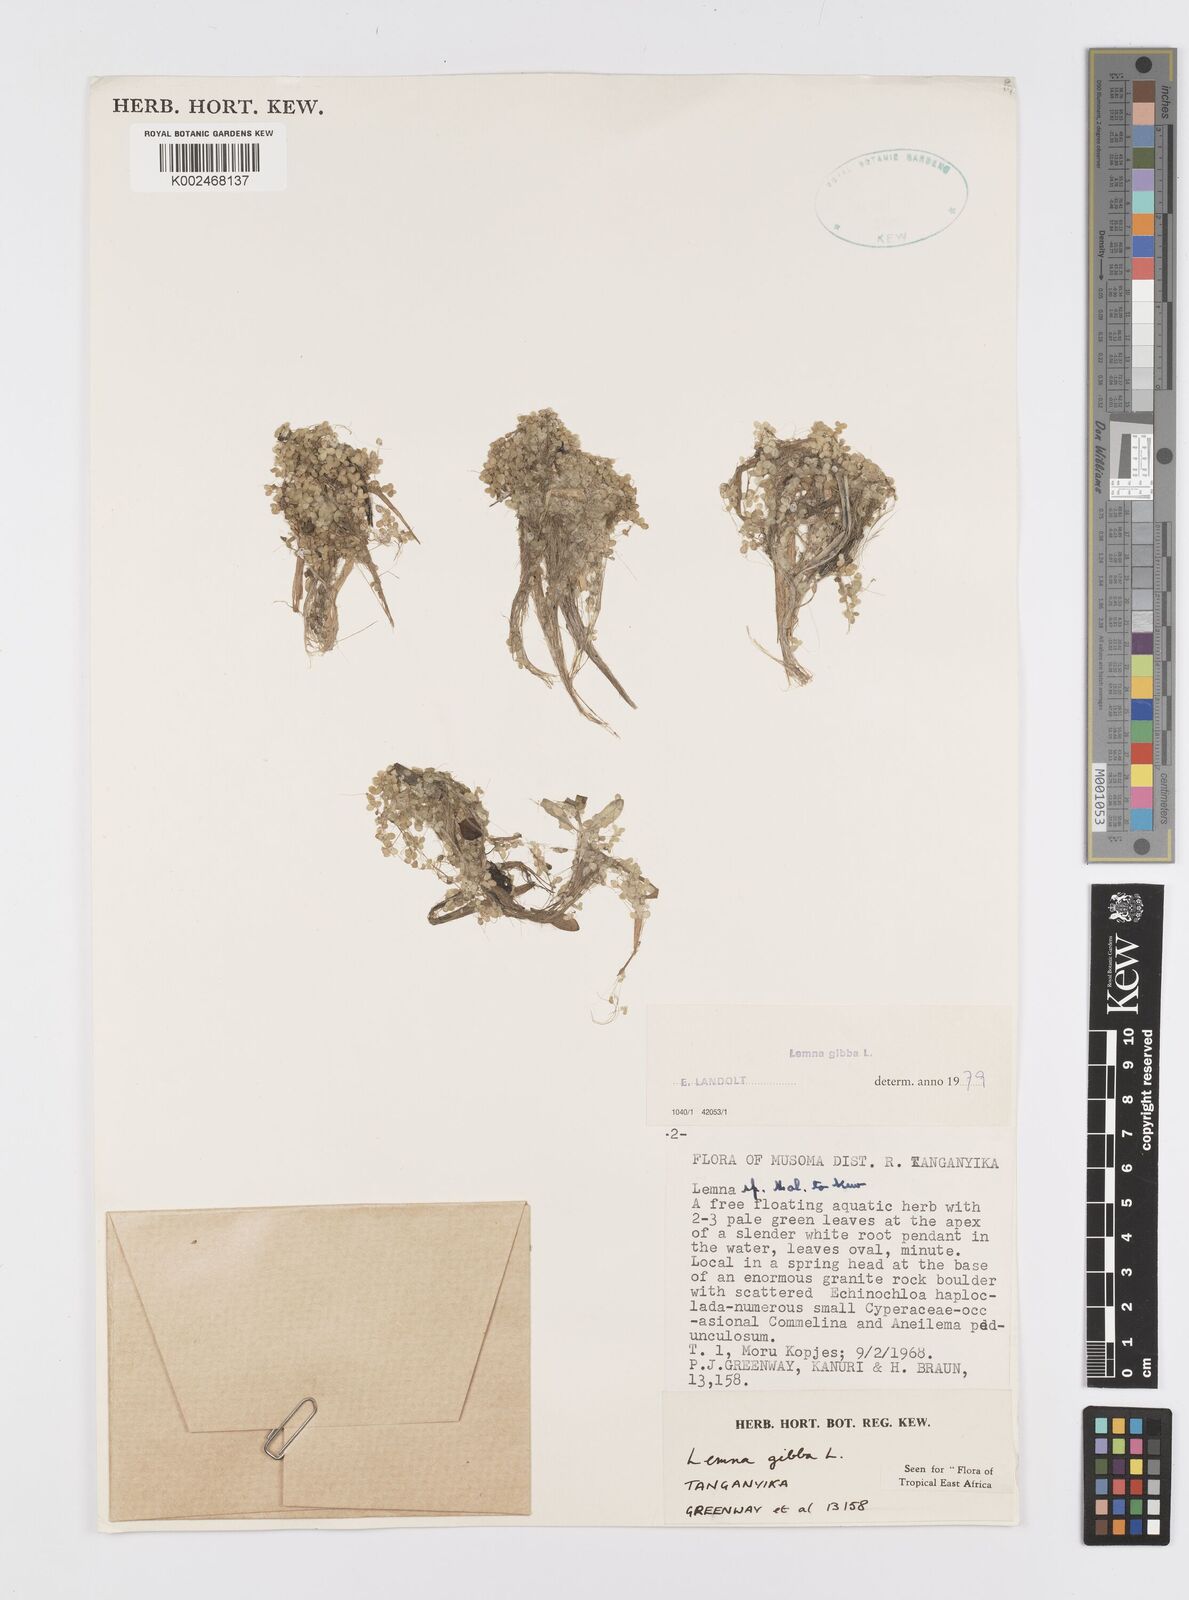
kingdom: Plantae
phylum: Tracheophyta
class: Liliopsida
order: Alismatales
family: Araceae
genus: Lemna
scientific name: Lemna gibba
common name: Fat duckweed
